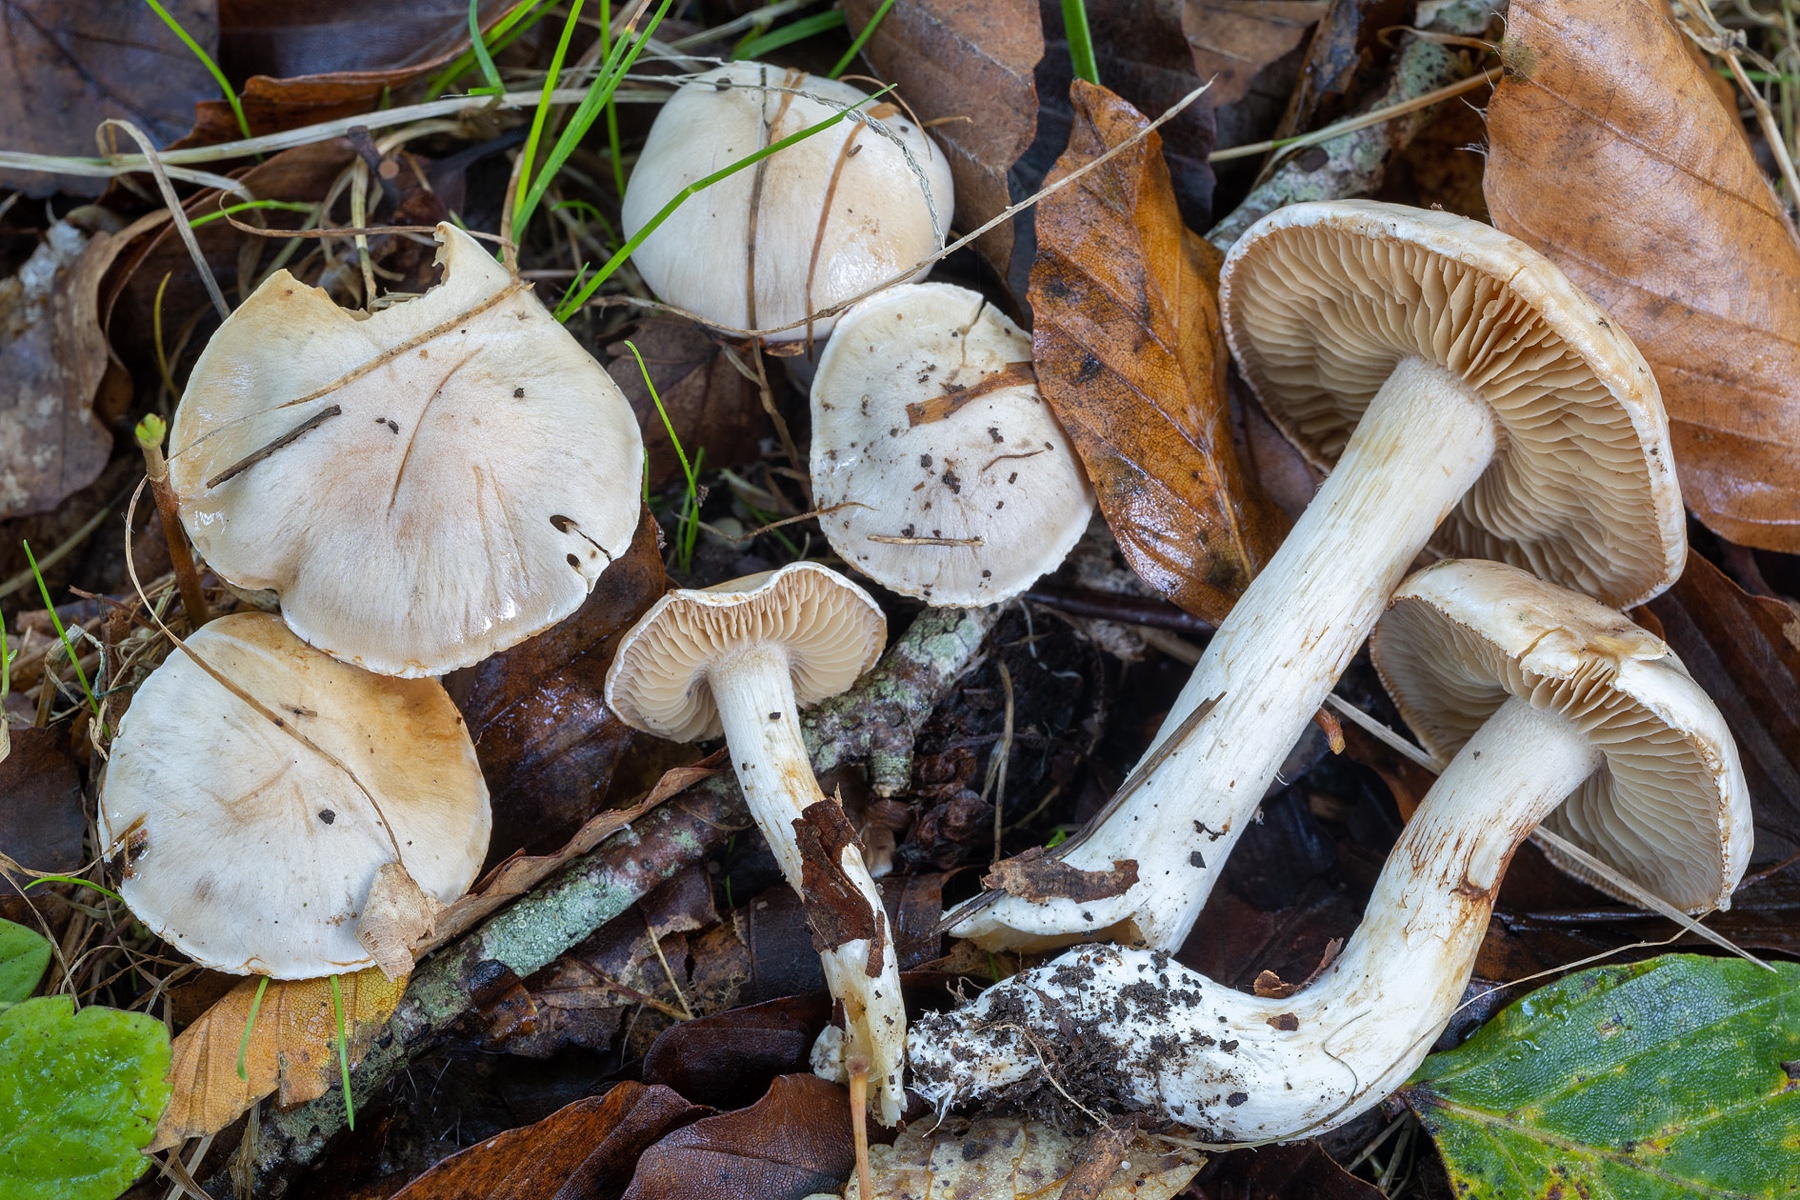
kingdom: Fungi
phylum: Basidiomycota
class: Agaricomycetes
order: Agaricales
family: Cortinariaceae
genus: Thaxterogaster
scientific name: Thaxterogaster barbatus
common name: elfenbens-slørhat
